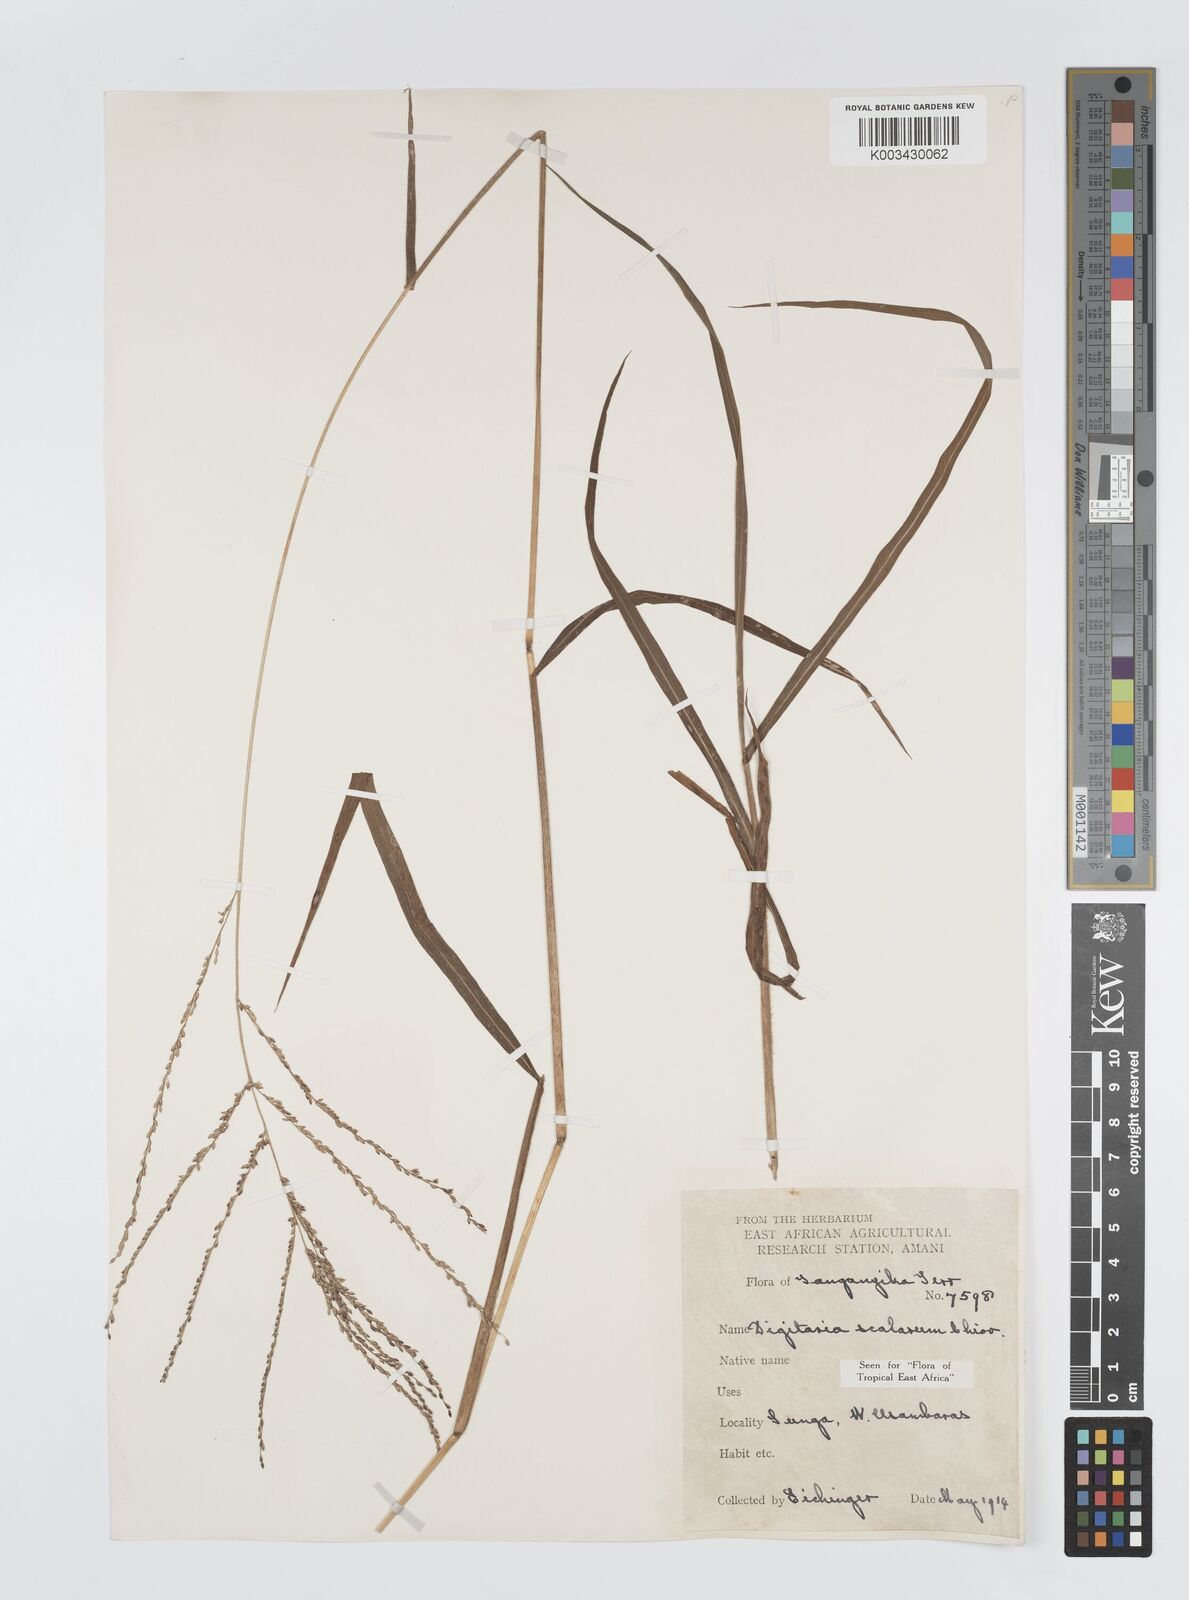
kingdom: Plantae
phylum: Tracheophyta
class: Liliopsida
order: Poales
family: Poaceae
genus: Digitaria
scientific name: Digitaria abyssinica
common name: African couchgrass
